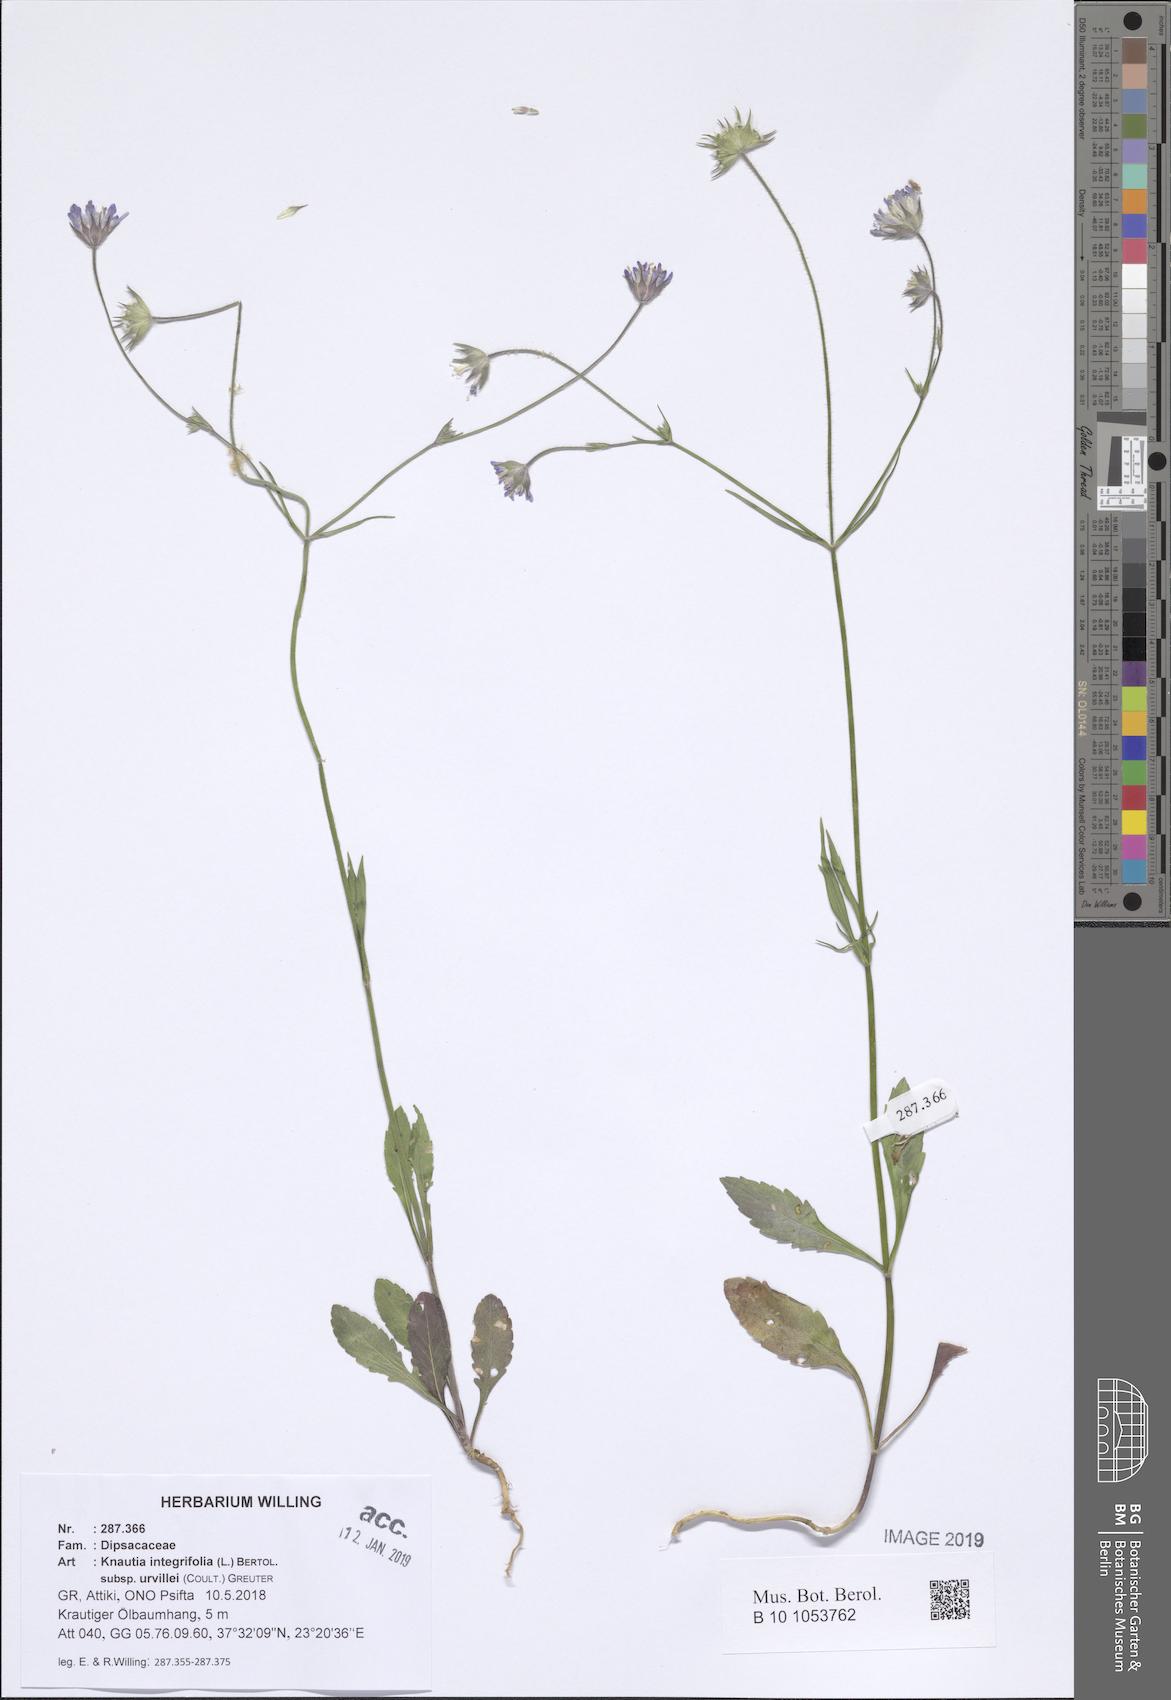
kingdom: Plantae
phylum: Tracheophyta
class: Magnoliopsida
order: Dipsacales
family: Caprifoliaceae
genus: Knautia
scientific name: Knautia integrifolia
